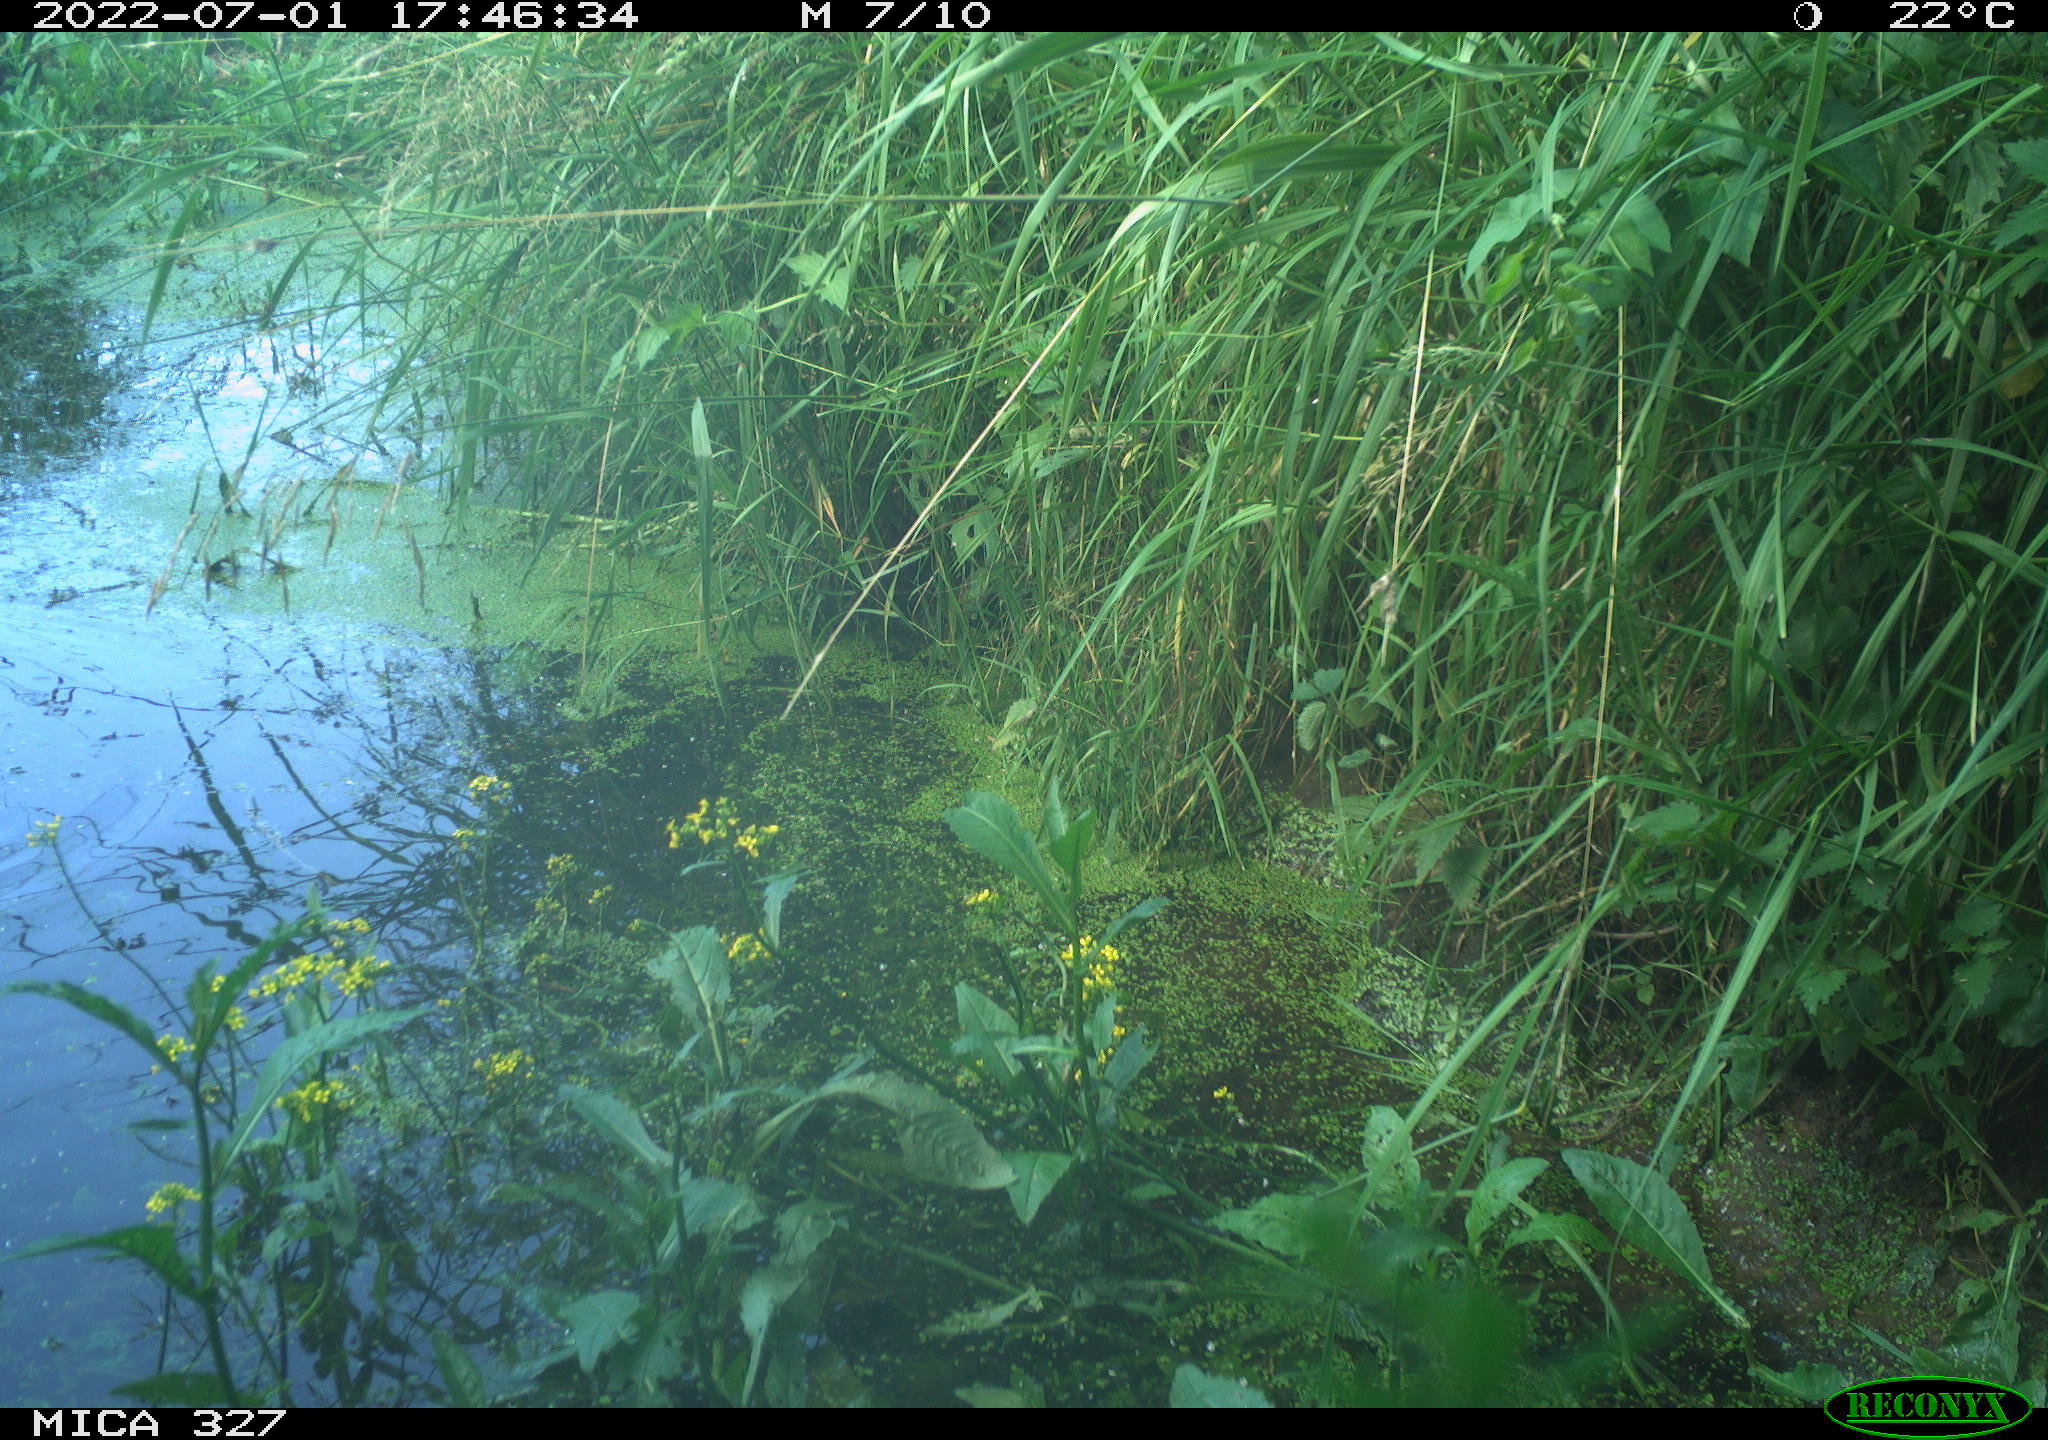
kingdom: Animalia
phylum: Chordata
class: Aves
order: Gruiformes
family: Rallidae
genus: Gallinula
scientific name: Gallinula chloropus
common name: Common moorhen
